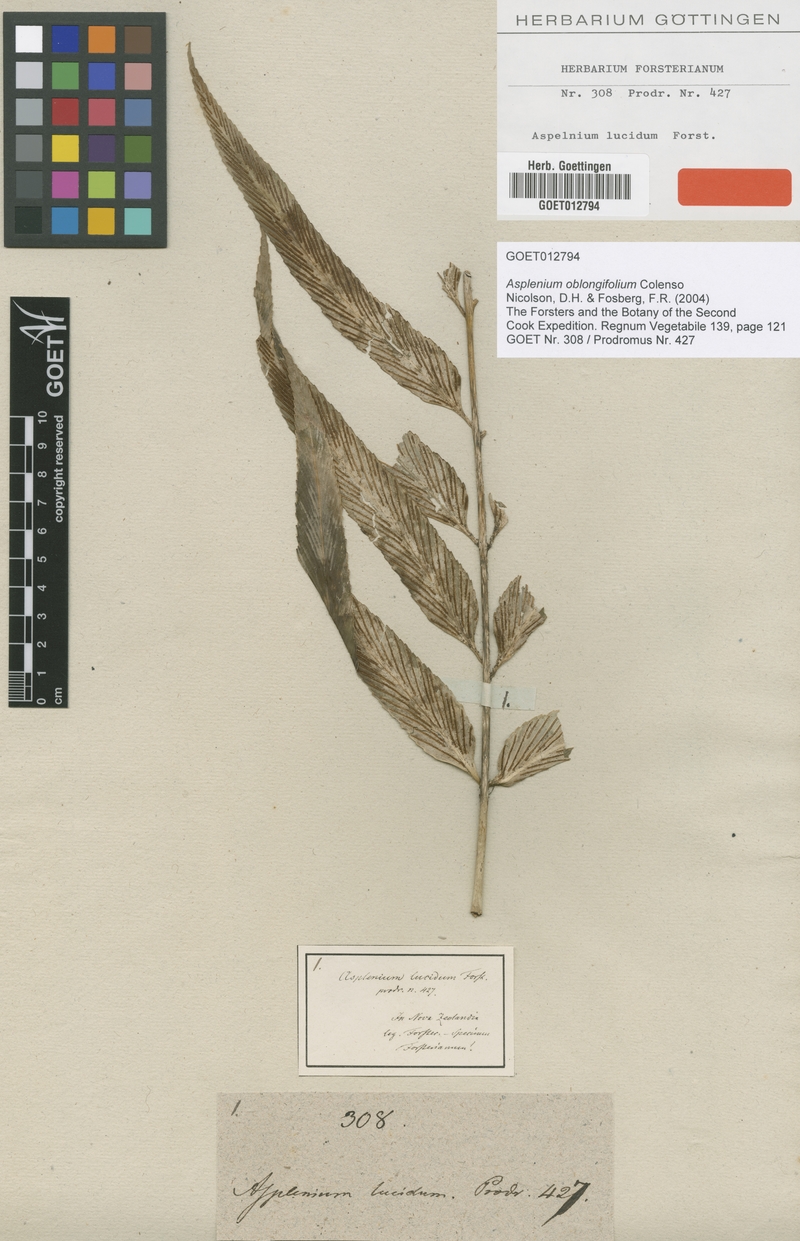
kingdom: Plantae
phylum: Tracheophyta
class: Polypodiopsida
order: Polypodiales
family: Aspleniaceae
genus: Asplenium
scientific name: Asplenium oblongifolium
